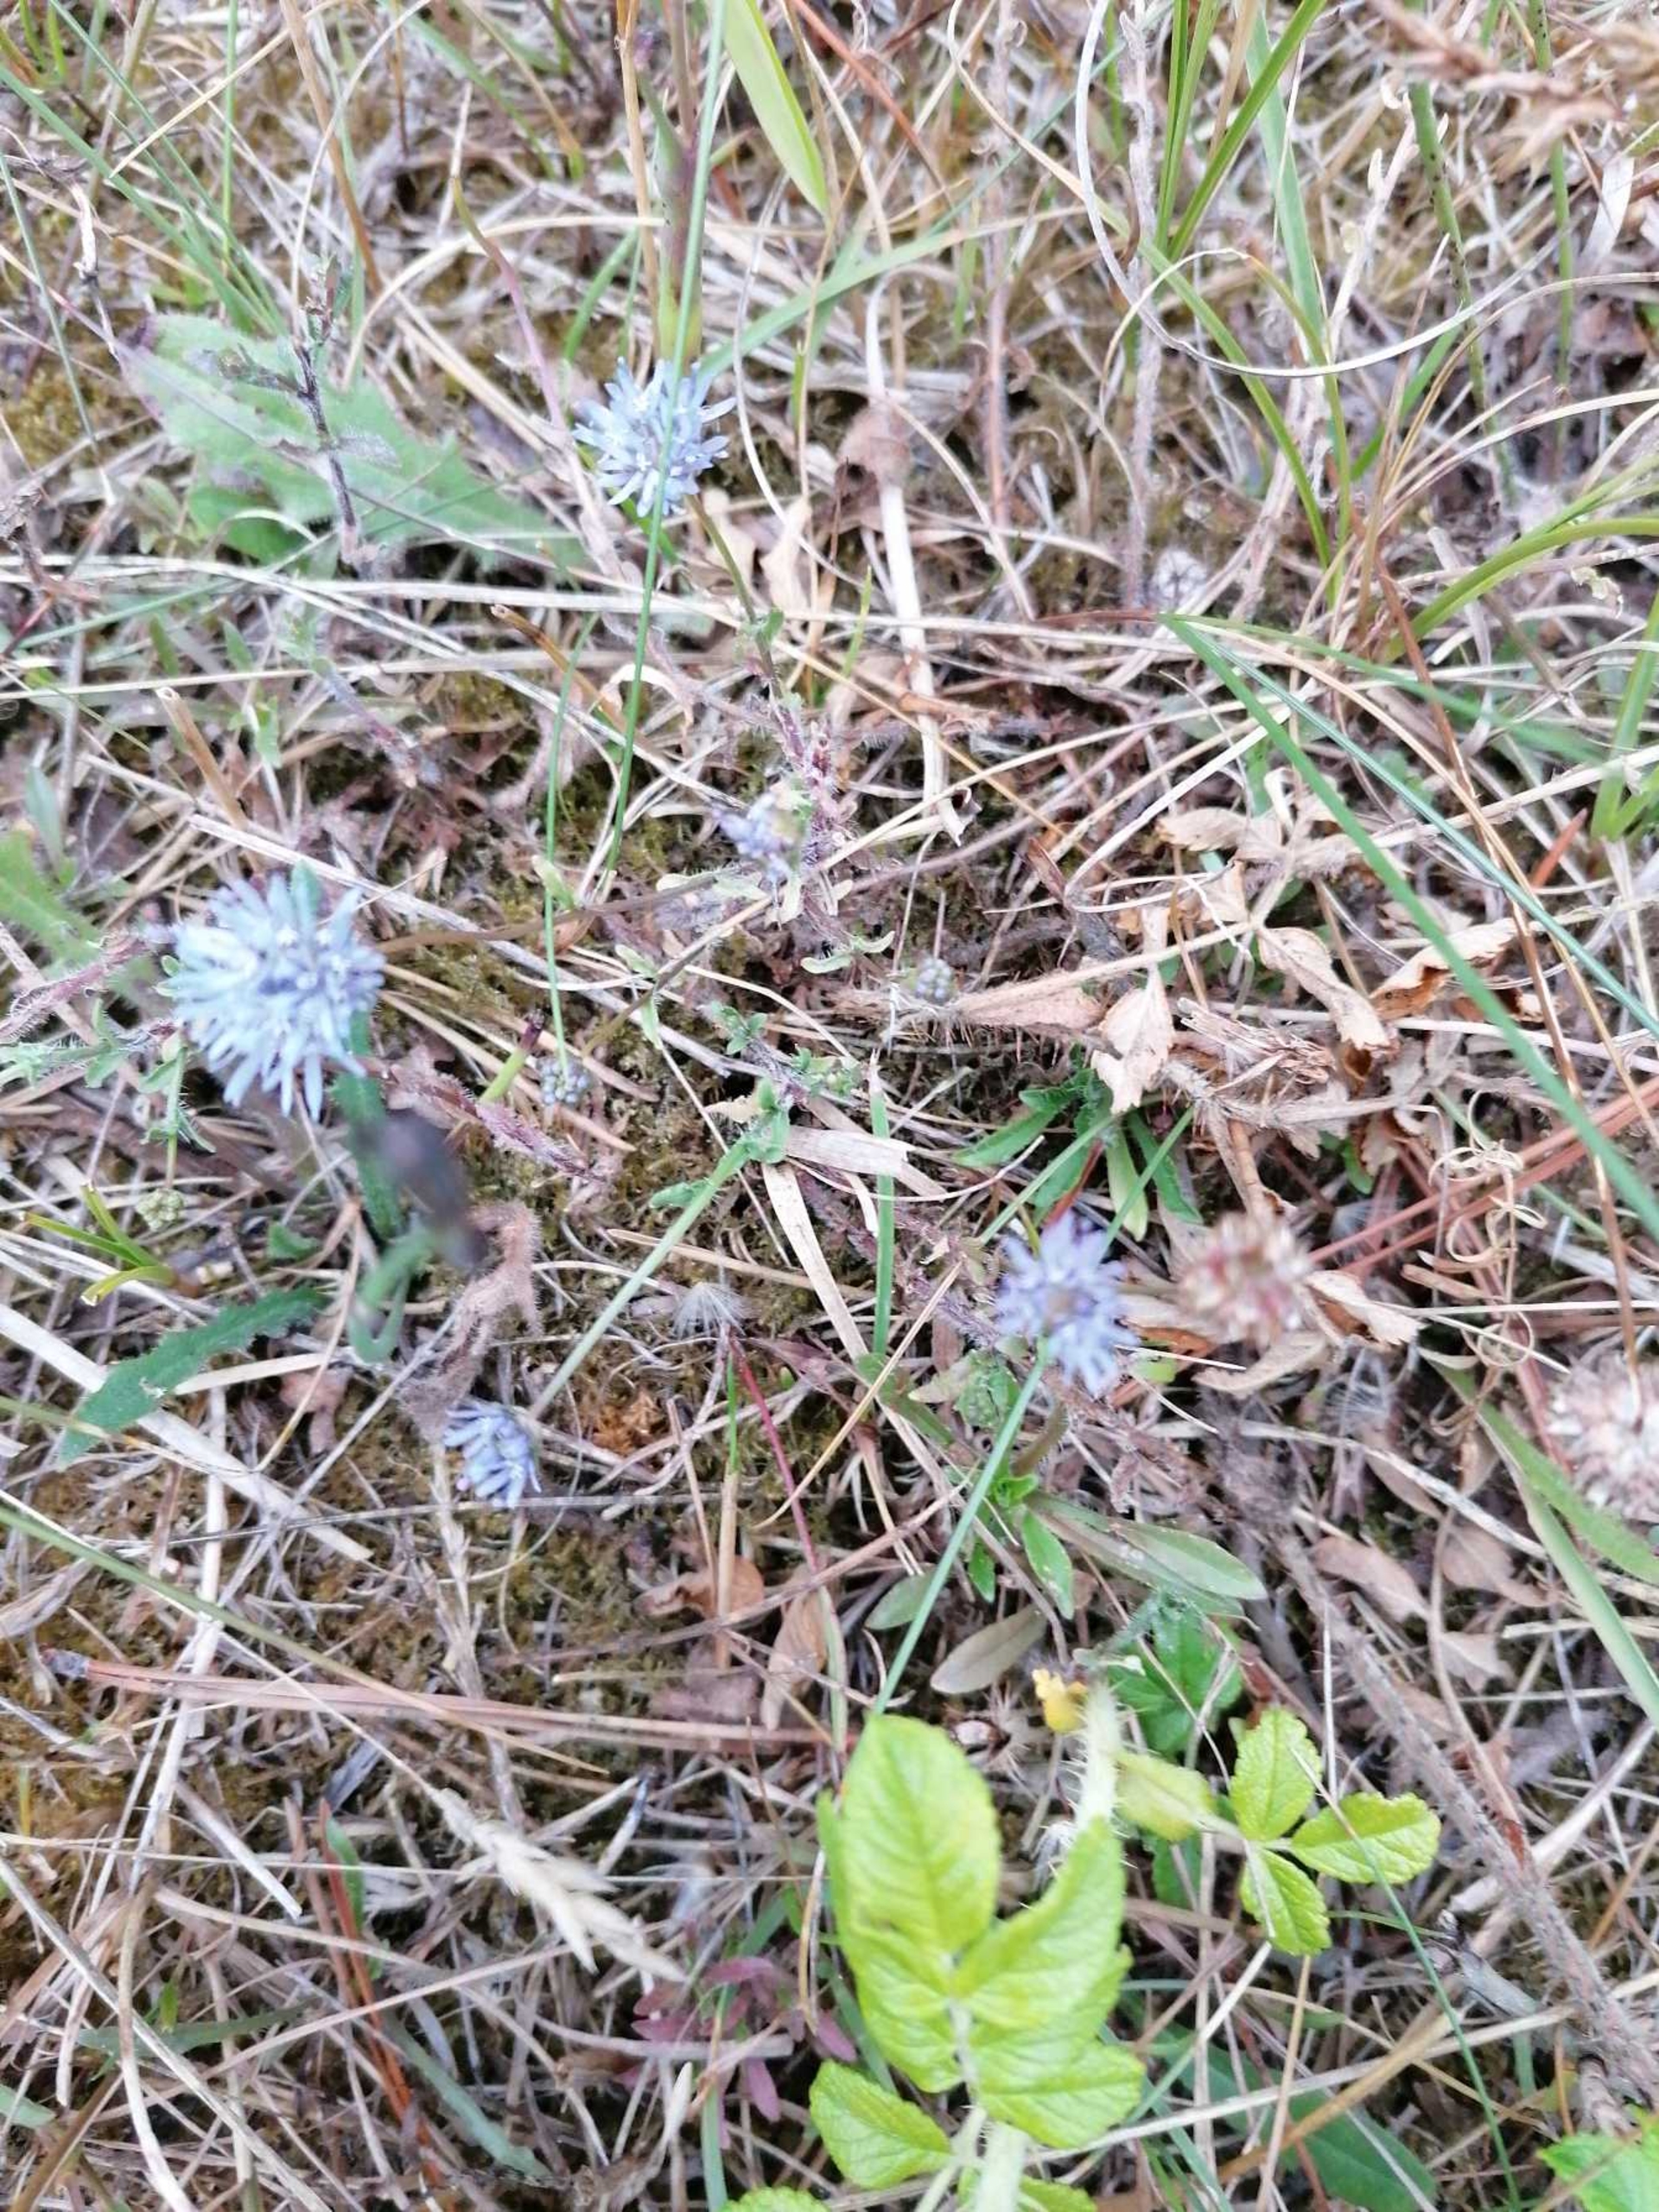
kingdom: Plantae
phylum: Tracheophyta
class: Magnoliopsida
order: Asterales
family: Campanulaceae
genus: Jasione
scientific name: Jasione montana
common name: Blåmunke
